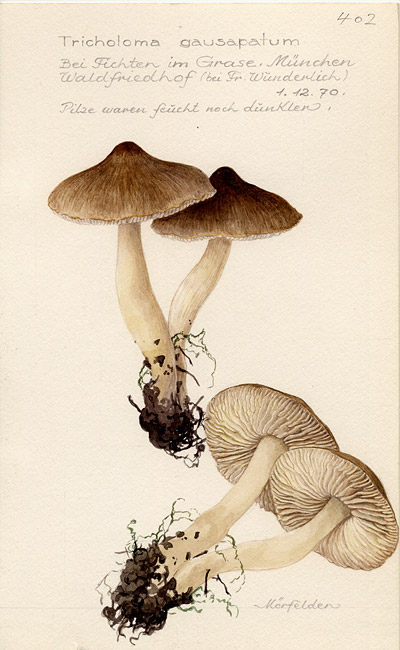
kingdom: Fungi
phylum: Basidiomycota
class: Agaricomycetes
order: Agaricales
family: Tricholomataceae
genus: Tricholoma
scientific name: Tricholoma gausapatum
